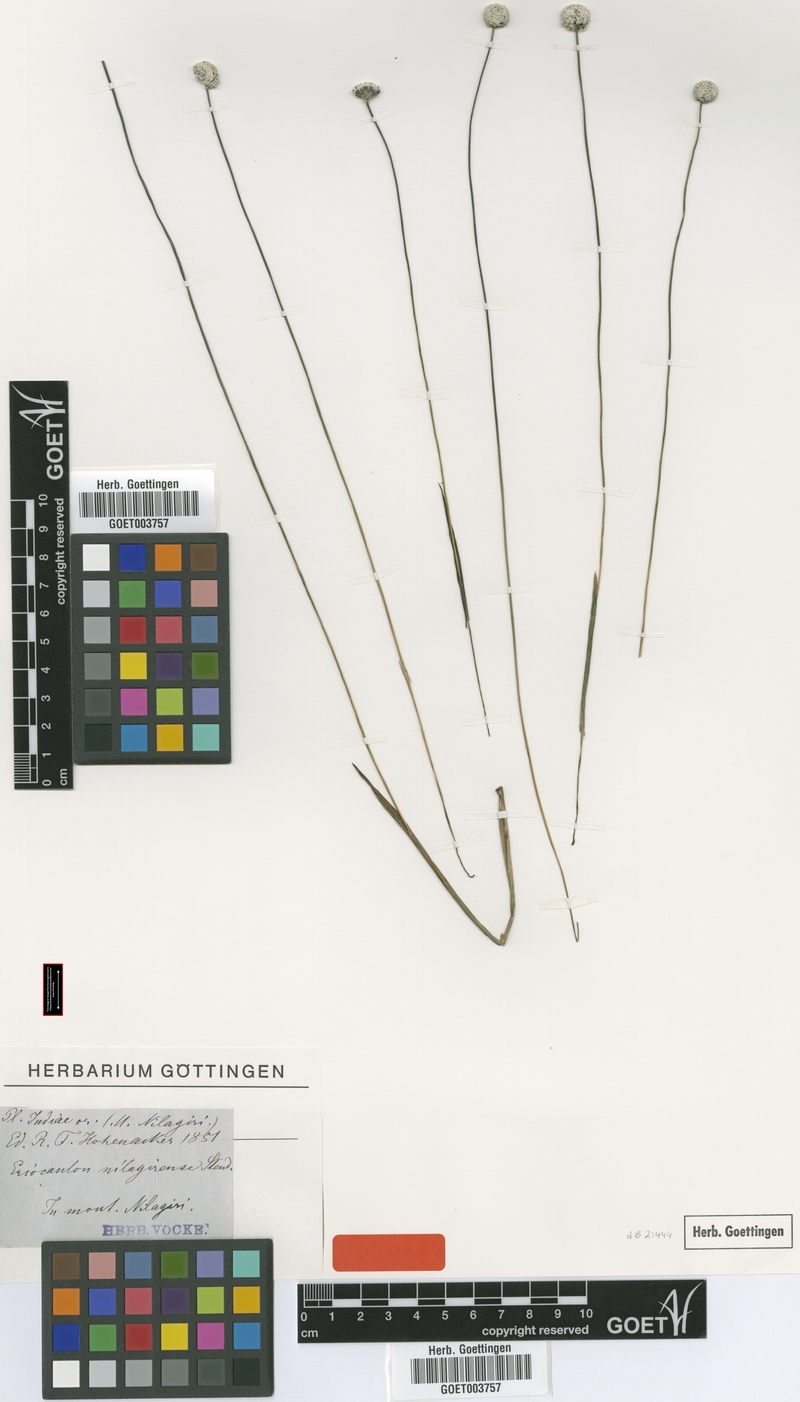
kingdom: Plantae
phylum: Tracheophyta
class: Liliopsida
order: Poales
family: Eriocaulaceae
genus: Eriocaulon
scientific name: Eriocaulon brownianum
